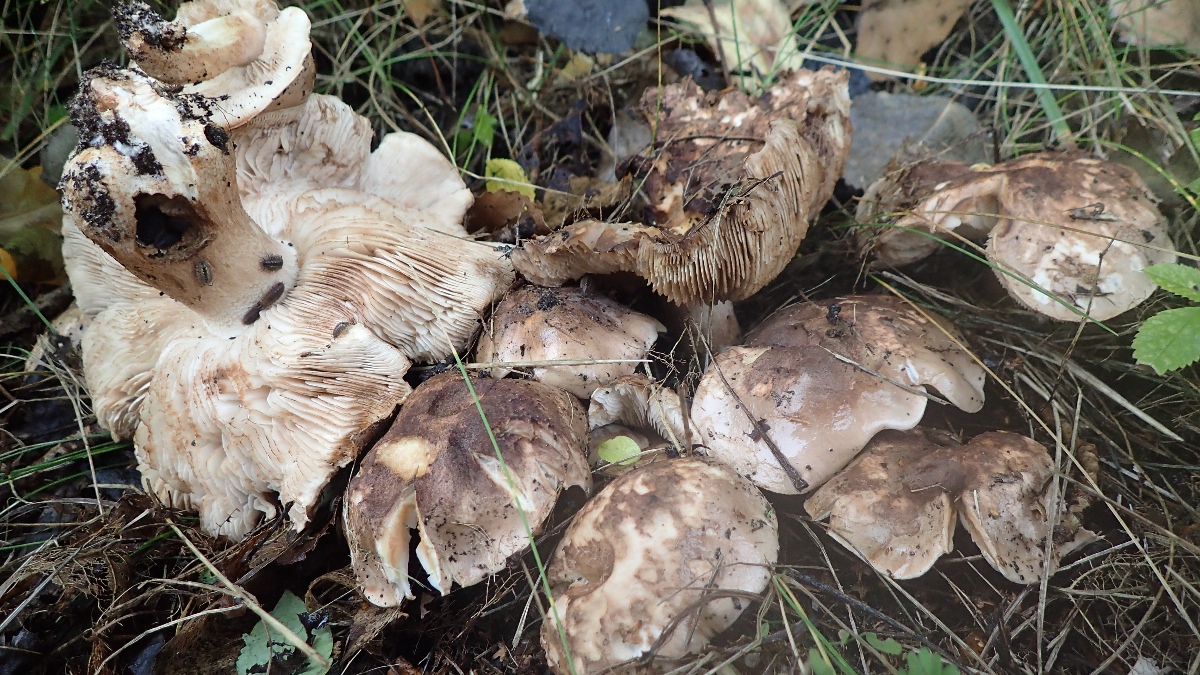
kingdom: Fungi
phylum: Basidiomycota
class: Agaricomycetes
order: Agaricales
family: Tricholomataceae
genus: Tricholoma
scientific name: Tricholoma populinum
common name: poppel-ridderhat
